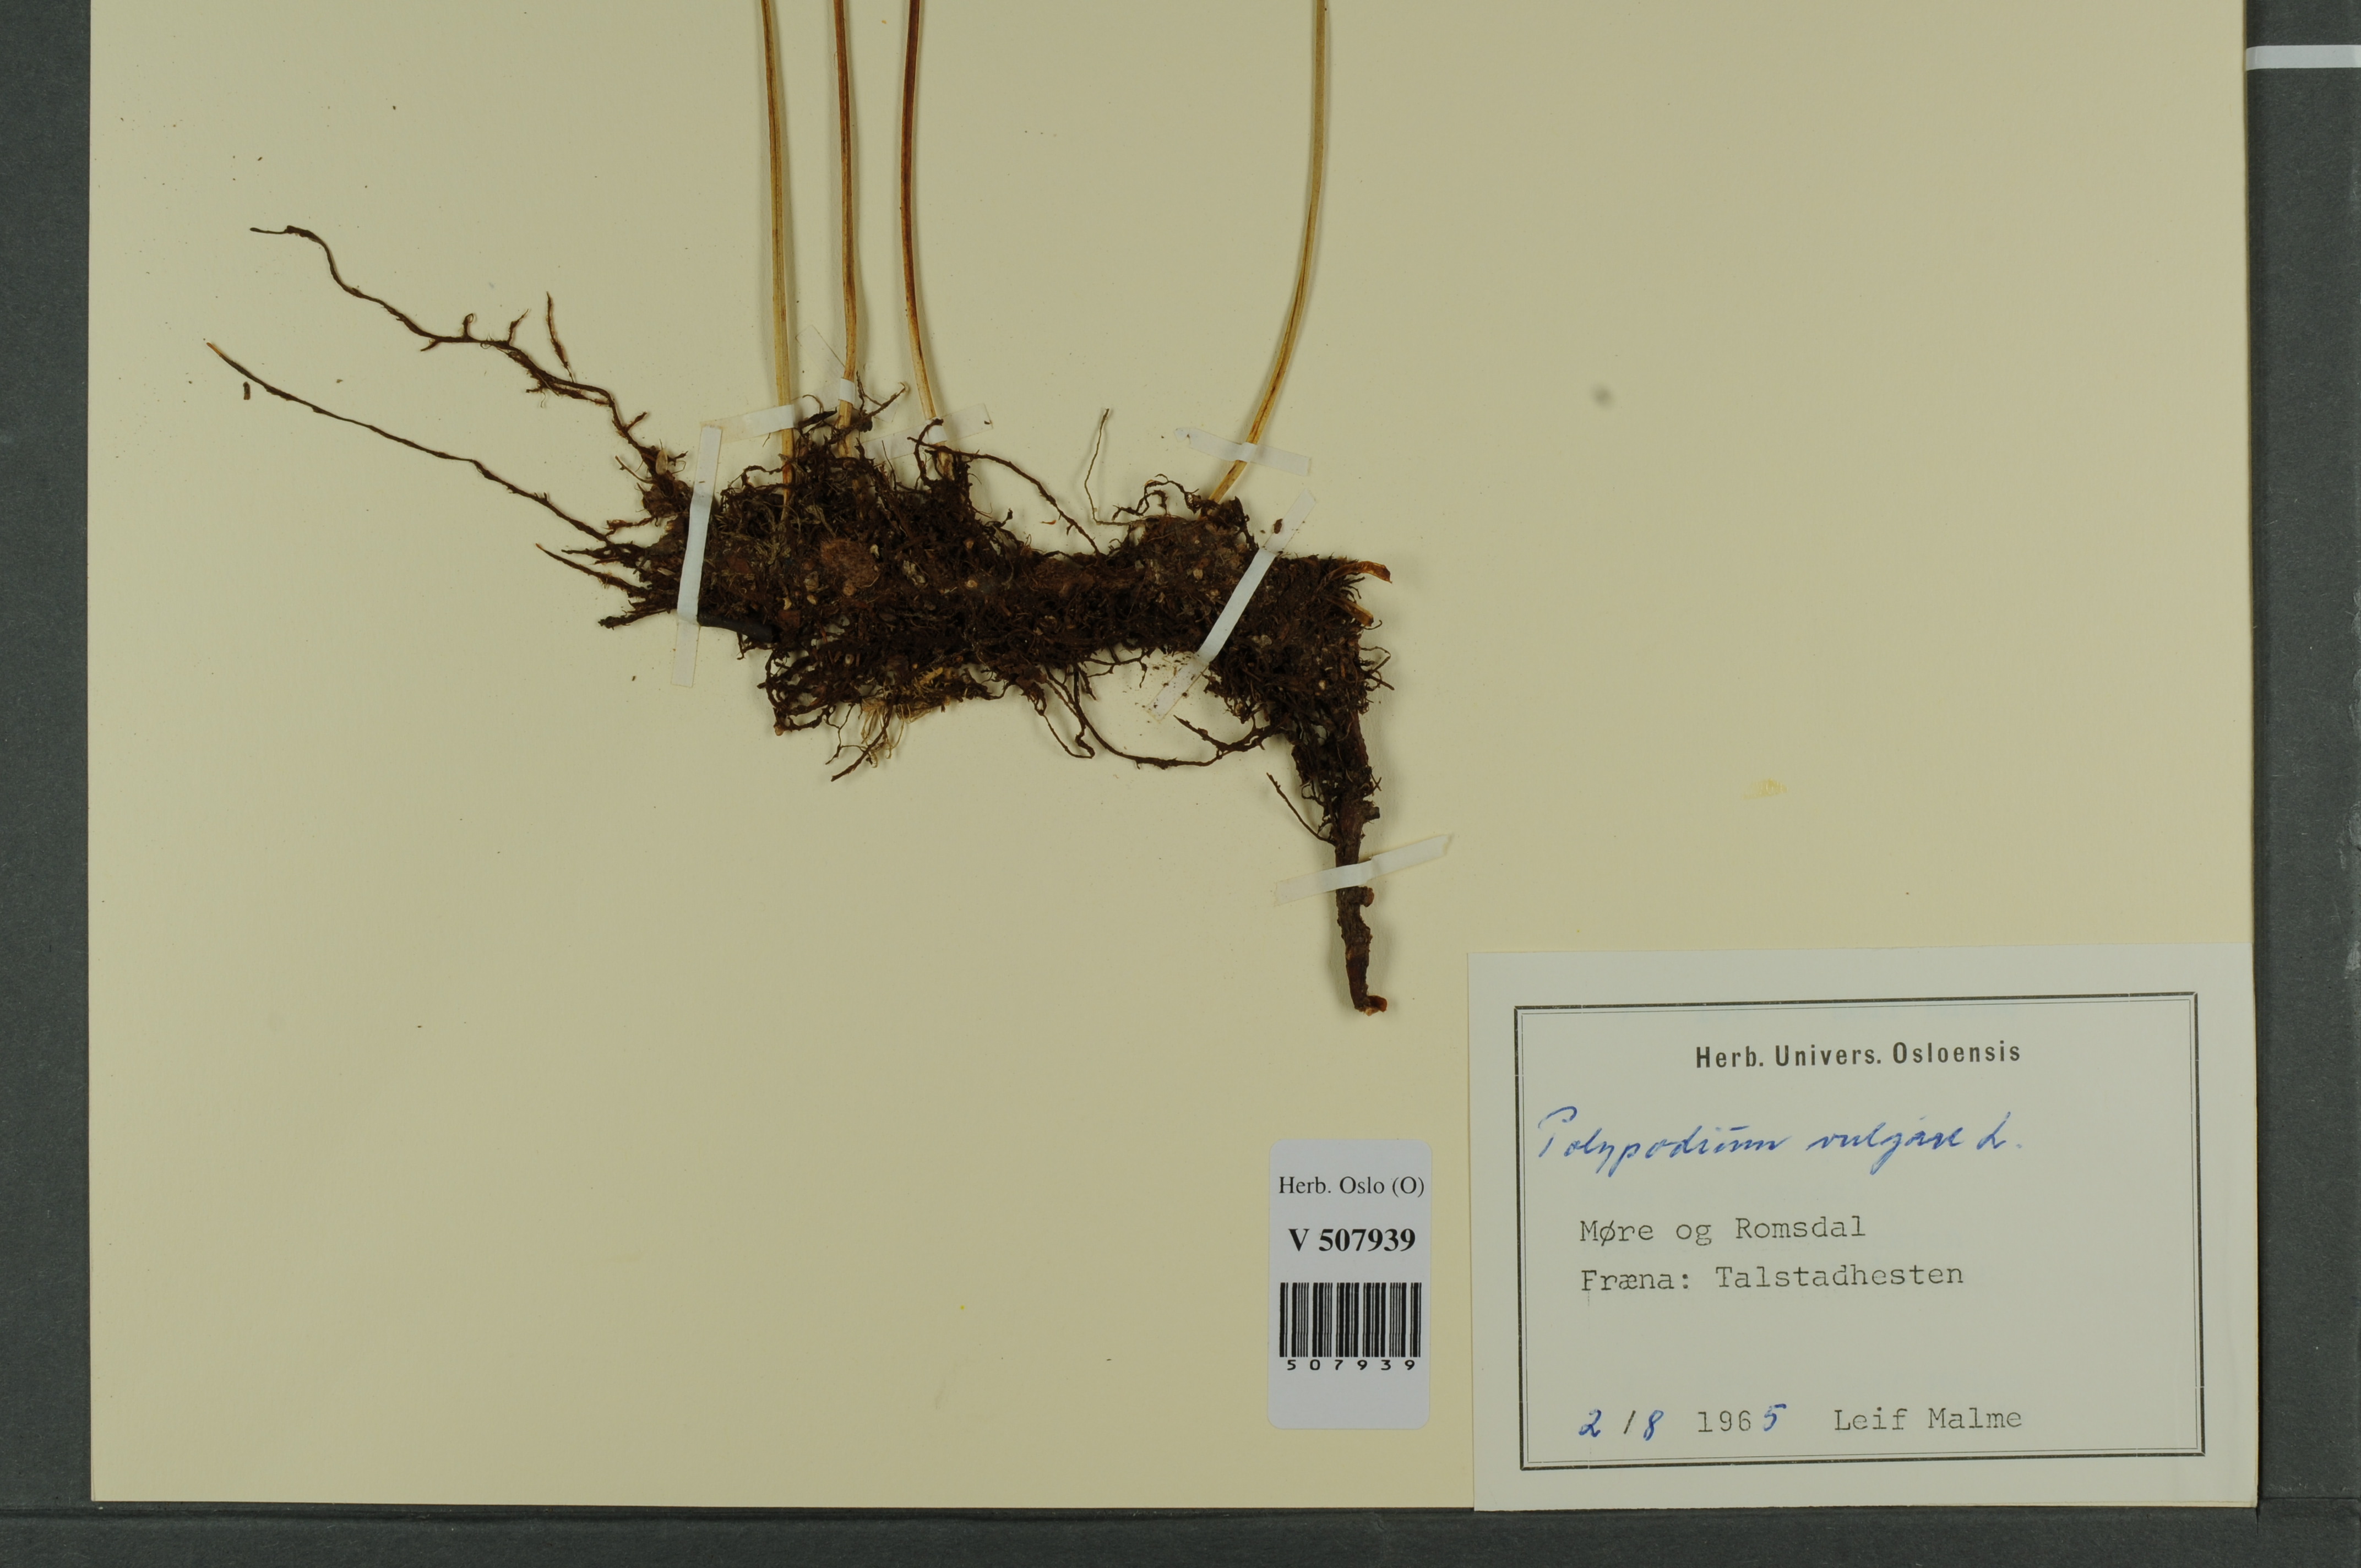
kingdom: Plantae
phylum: Tracheophyta
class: Polypodiopsida
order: Polypodiales
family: Polypodiaceae
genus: Polypodium
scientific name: Polypodium vulgare
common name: Common polypody
